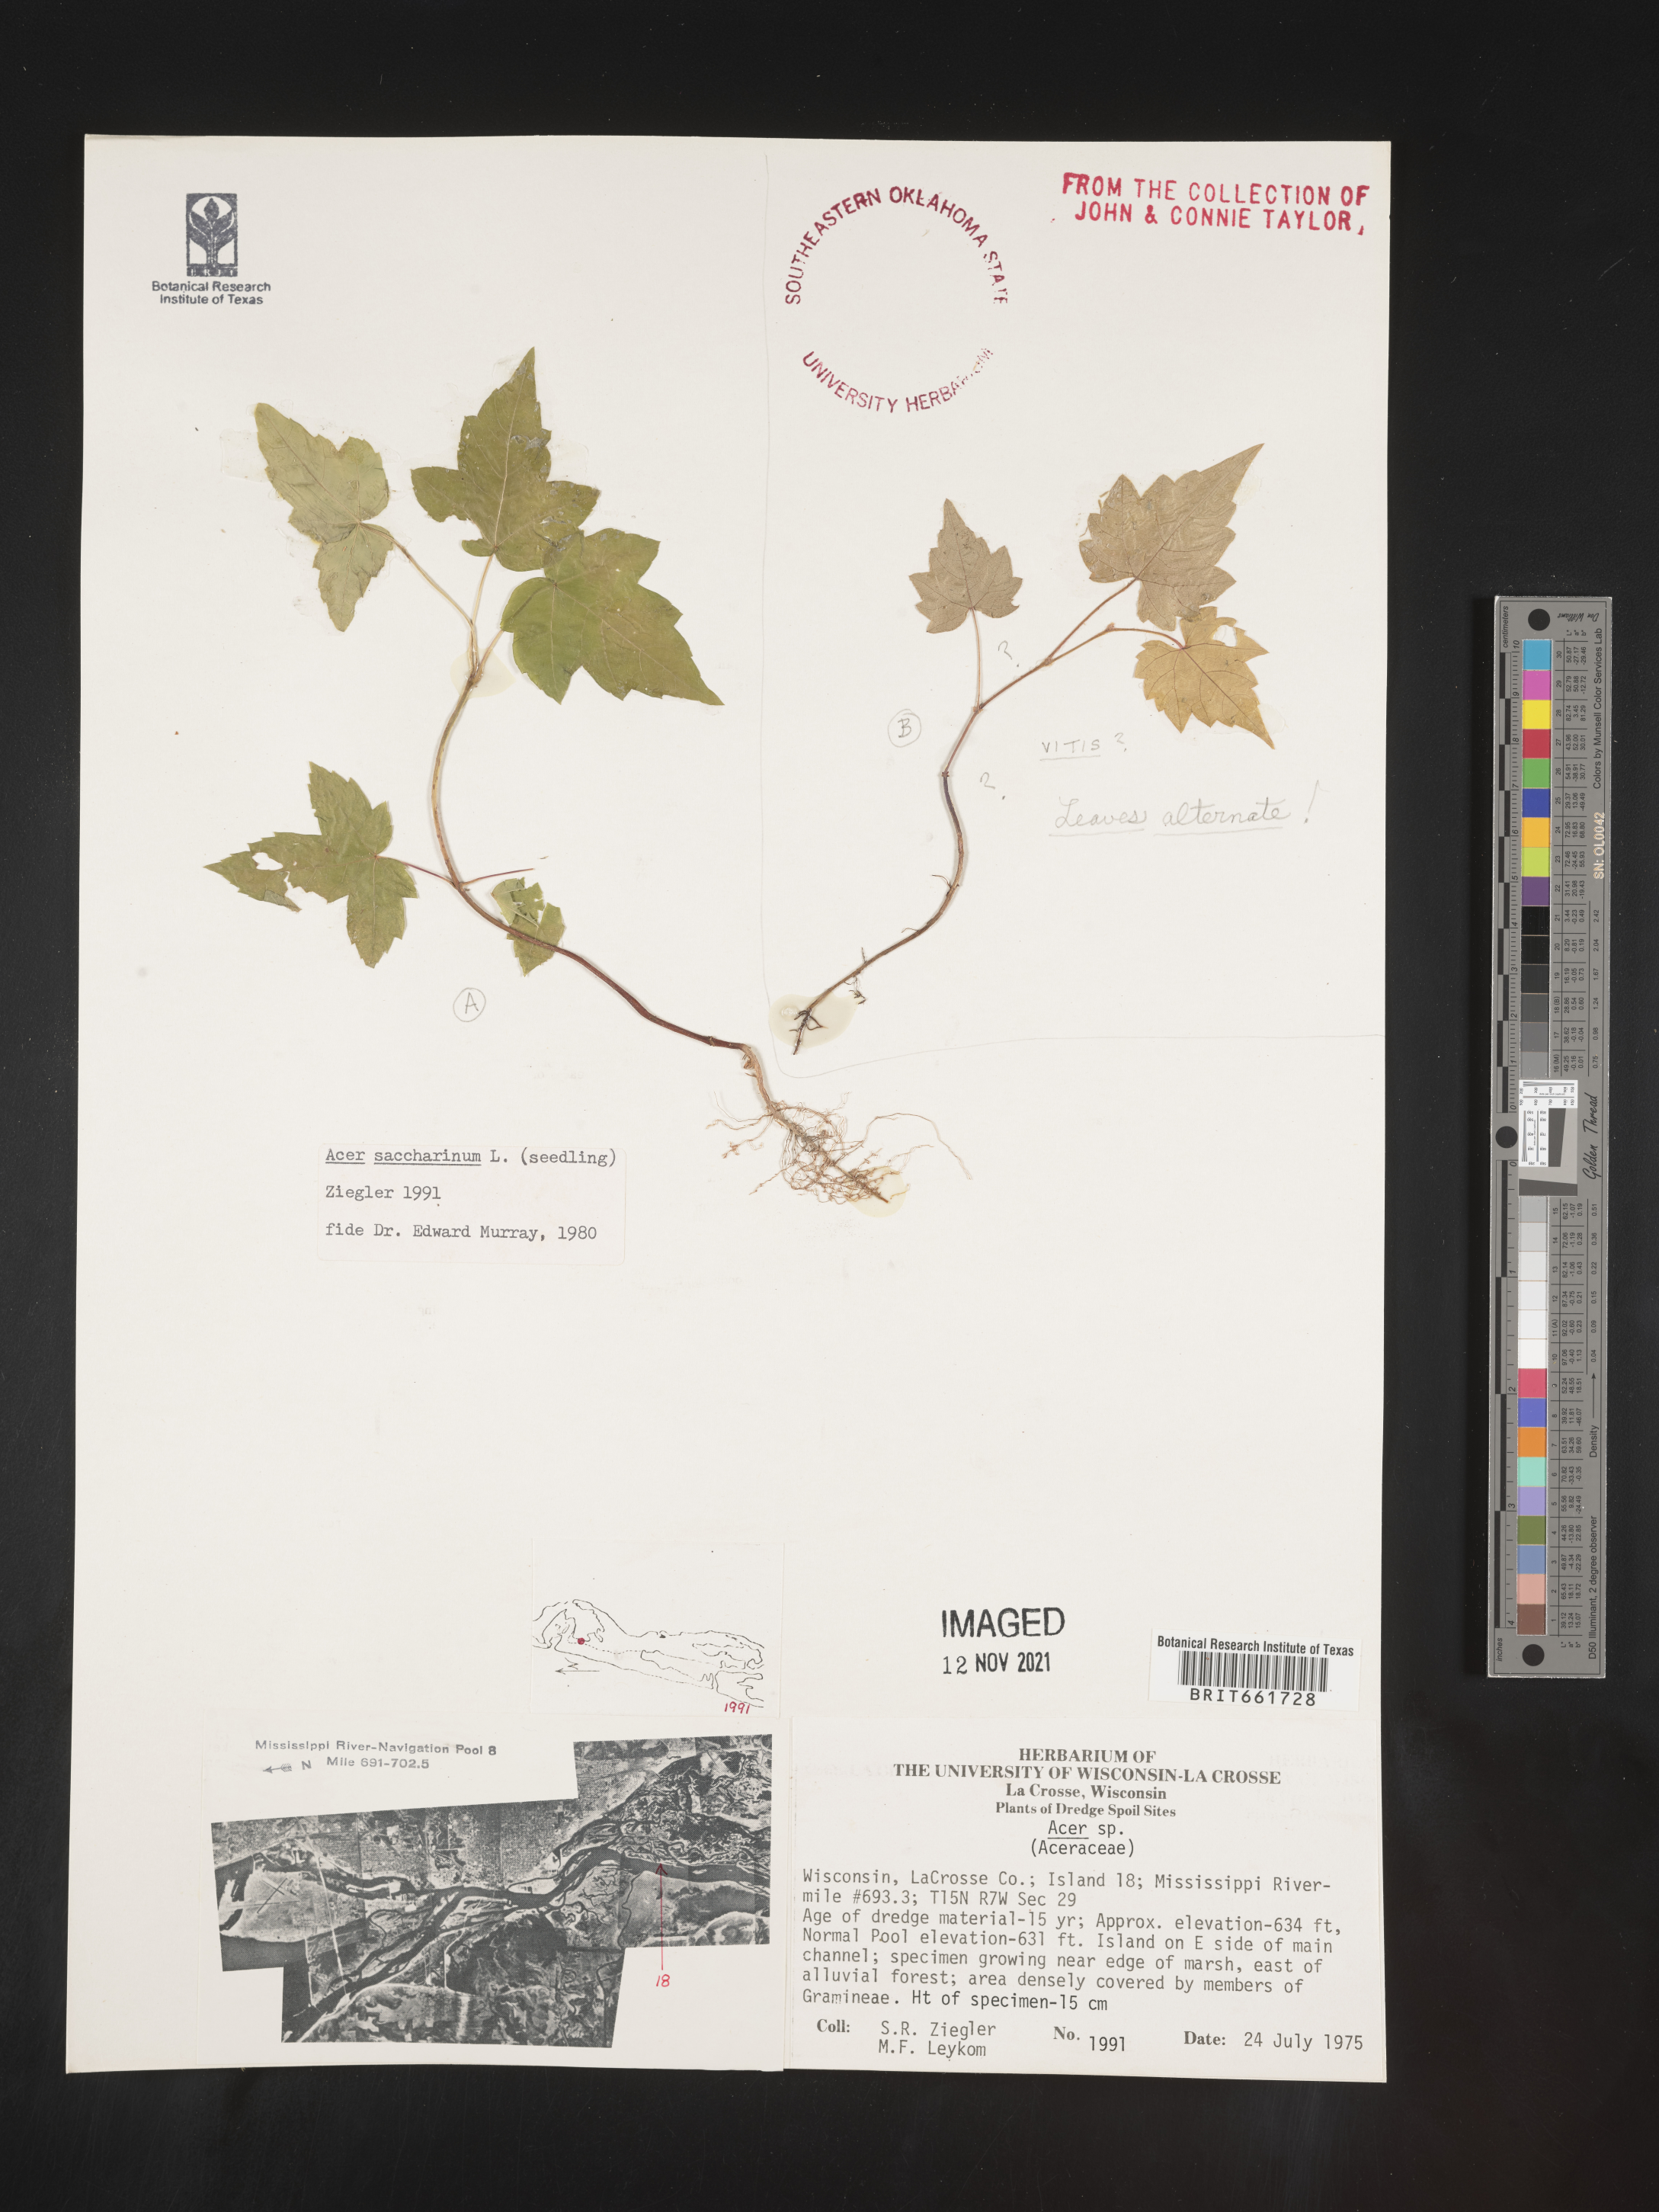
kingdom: Plantae
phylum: Tracheophyta
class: Magnoliopsida
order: Sapindales
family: Sapindaceae
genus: Acer
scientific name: Acer saccharinum
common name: Silver maple
